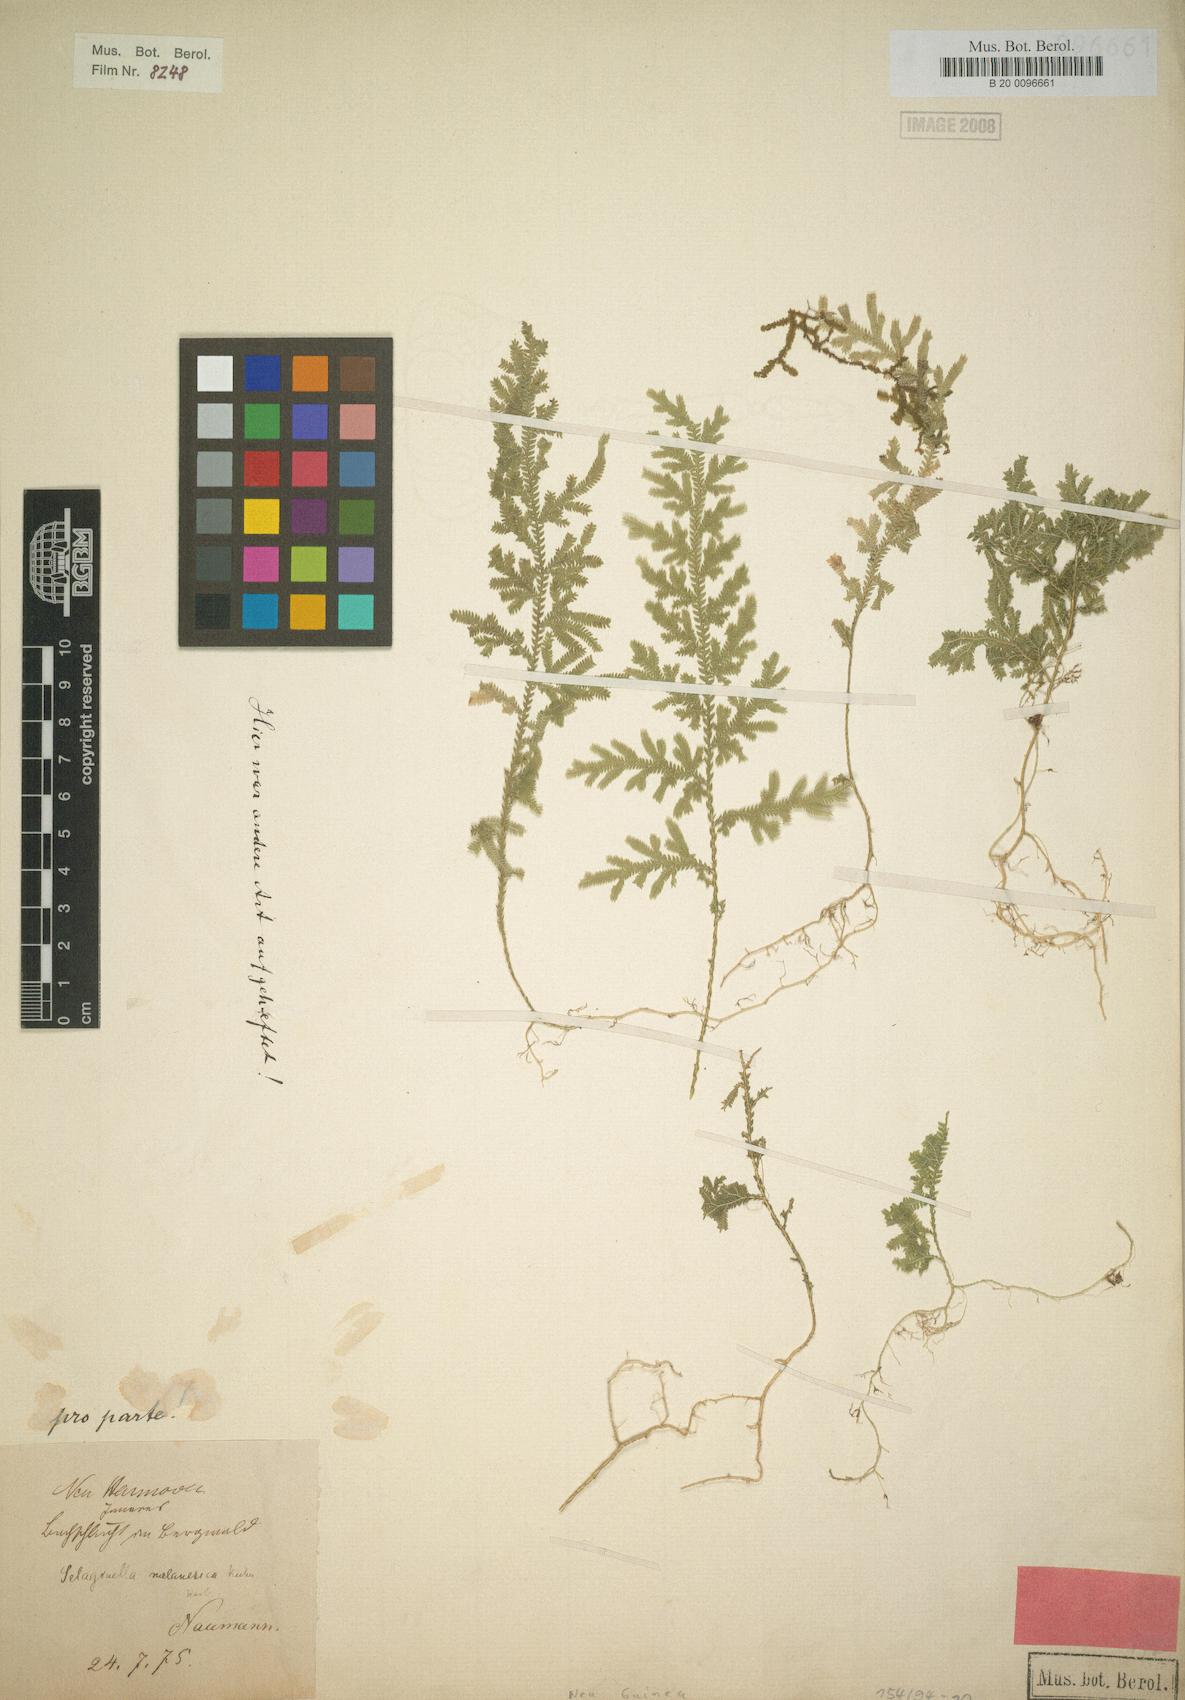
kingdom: Plantae
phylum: Tracheophyta
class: Lycopodiopsida
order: Selaginellales
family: Selaginellaceae
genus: Selaginella
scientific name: Selaginella melanesica
